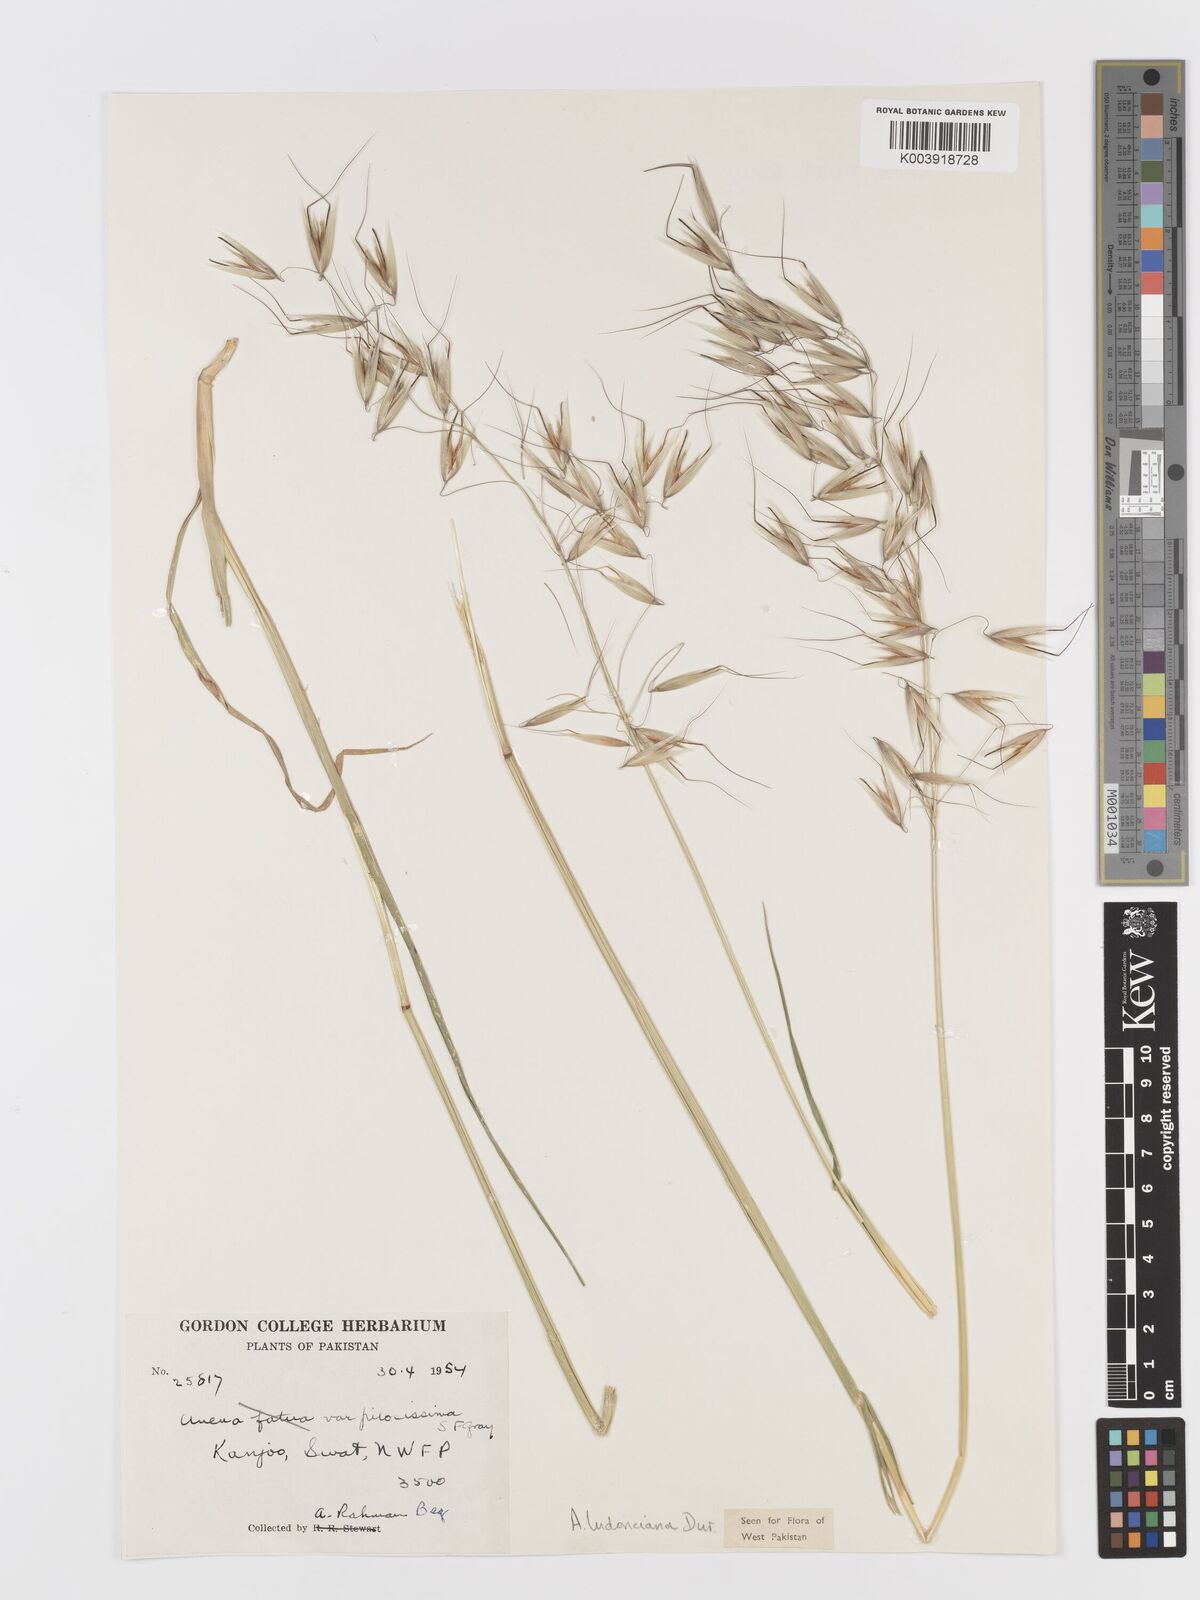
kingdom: Plantae
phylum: Tracheophyta
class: Liliopsida
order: Poales
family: Poaceae
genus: Avena
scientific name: Avena sterilis
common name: Animated oat
